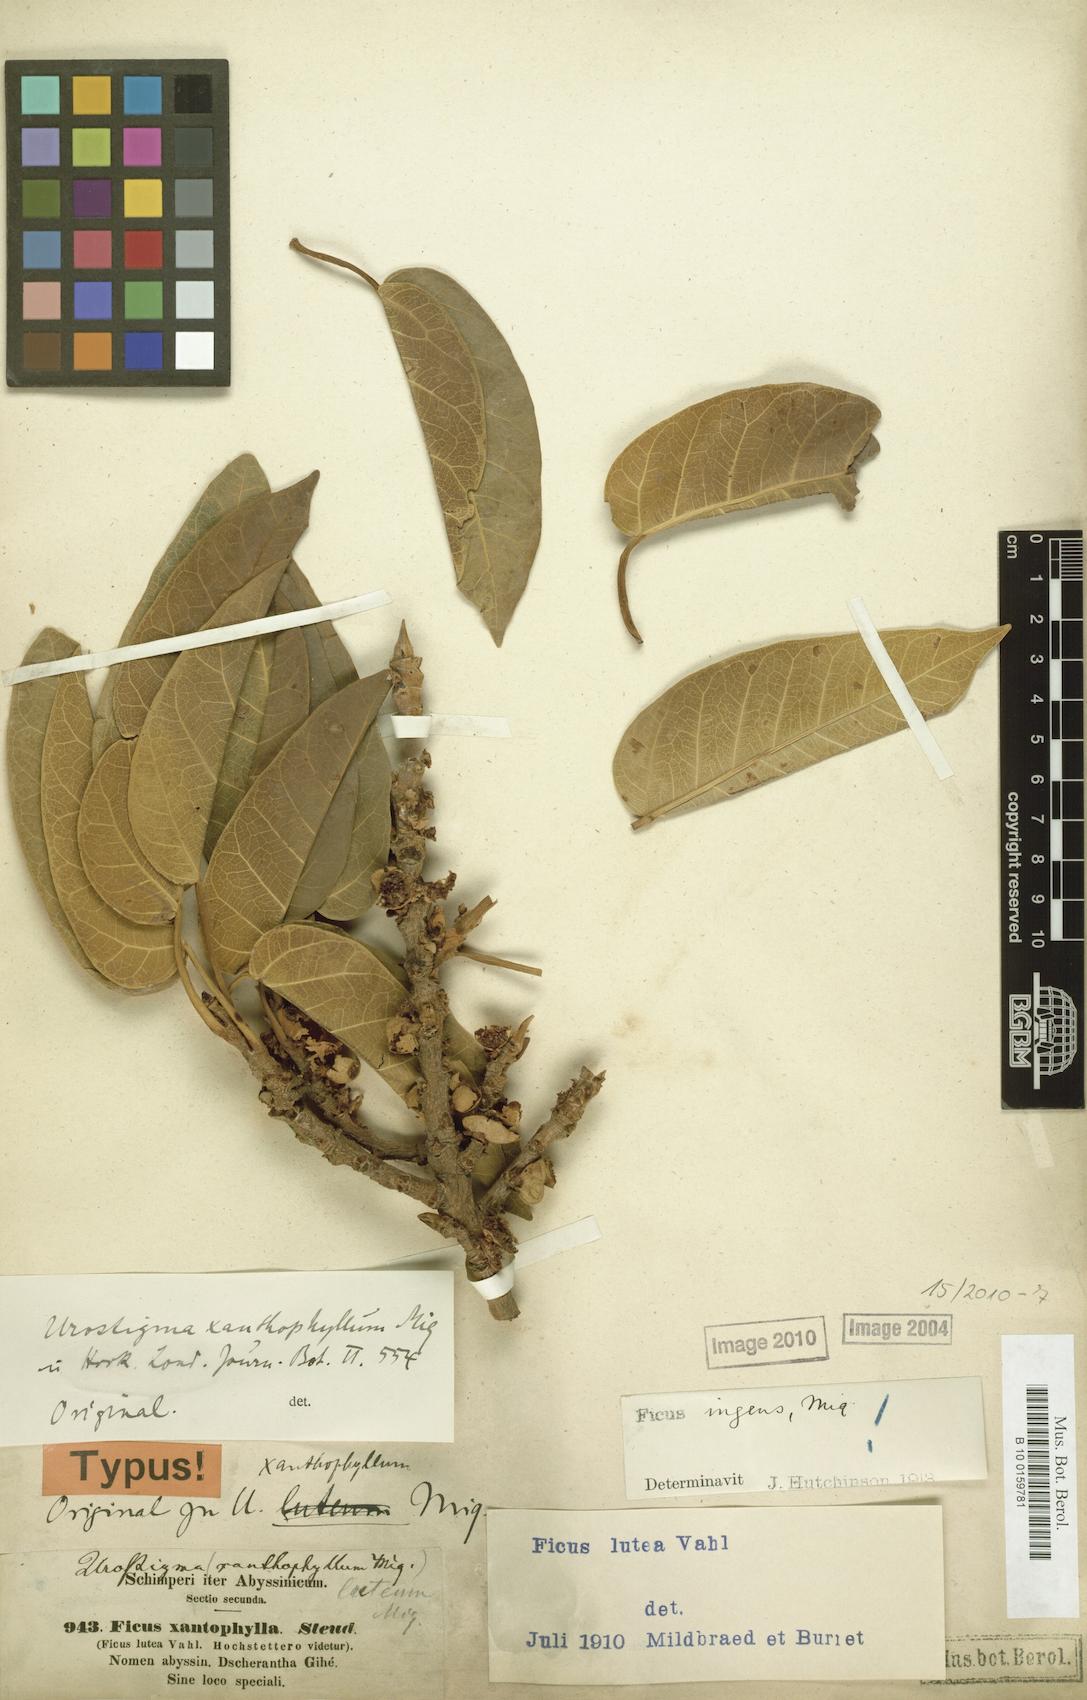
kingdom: Plantae
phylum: Tracheophyta
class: Magnoliopsida
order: Rosales
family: Moraceae
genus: Ficus
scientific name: Ficus ingens
